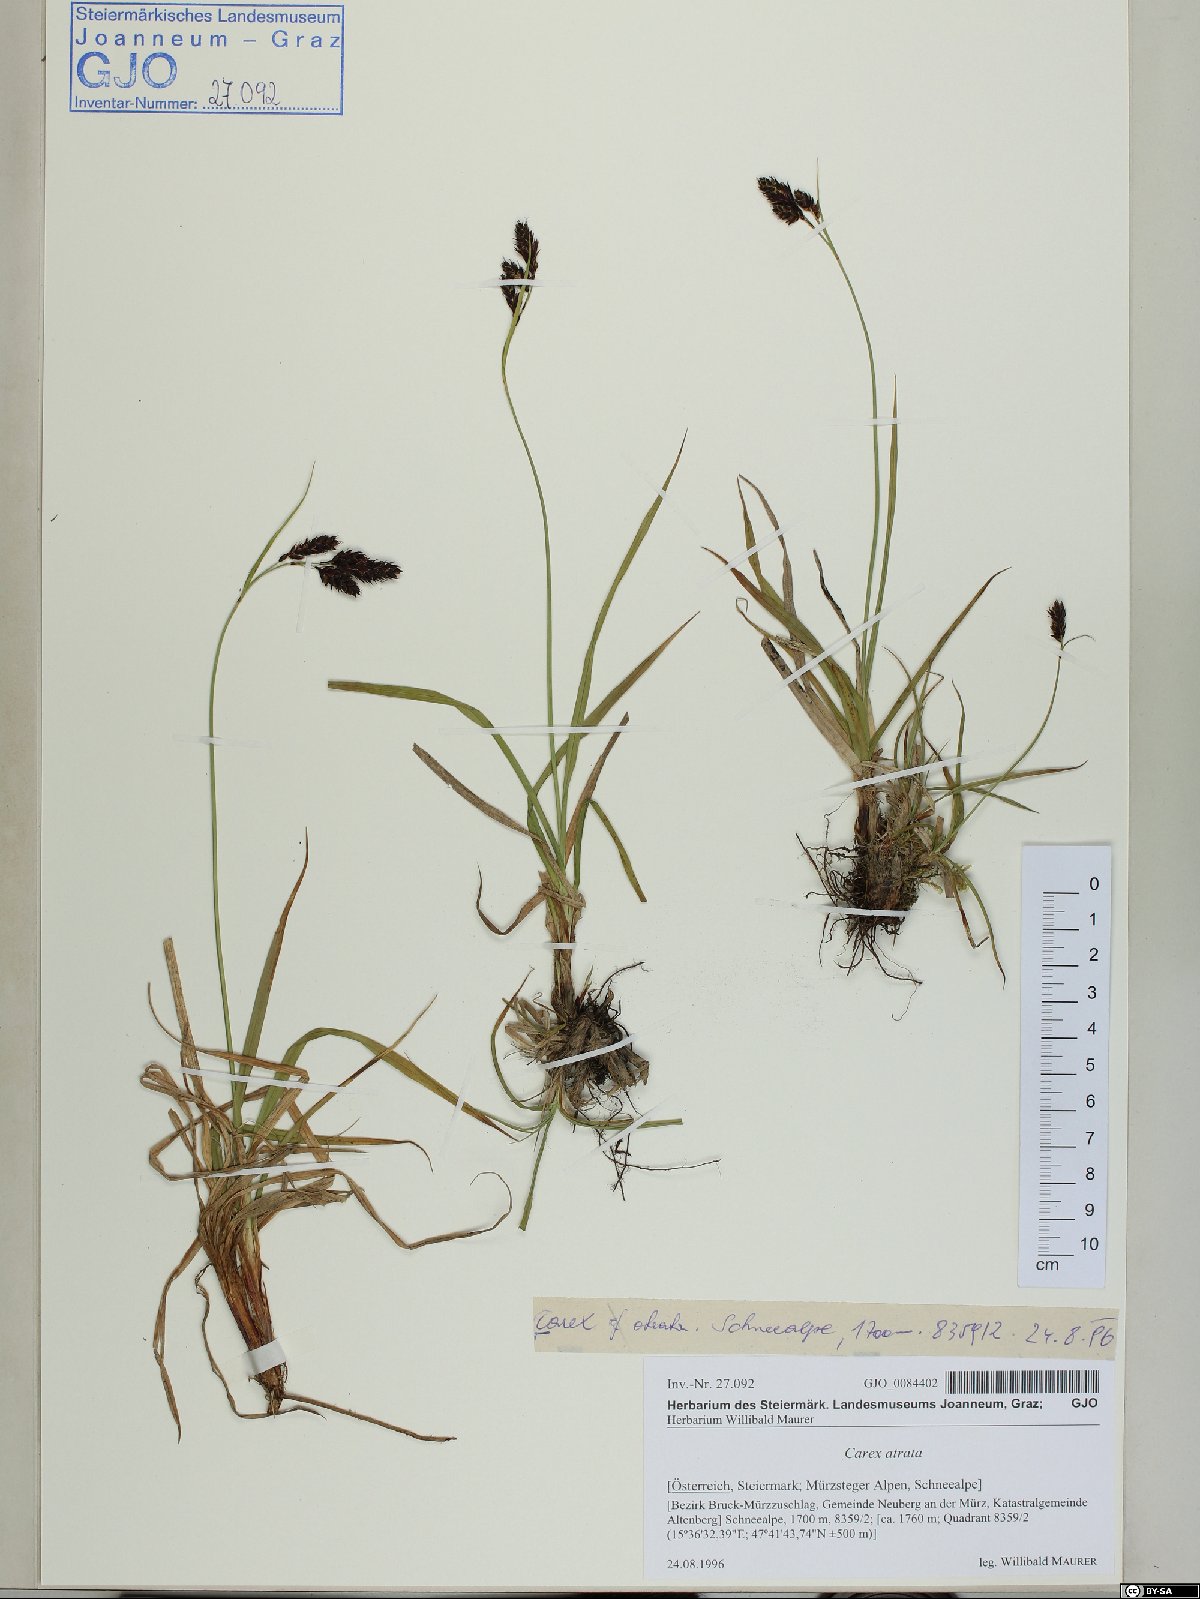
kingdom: Plantae
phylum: Tracheophyta
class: Liliopsida
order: Poales
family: Cyperaceae
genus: Carex
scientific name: Carex atrata
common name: Black alpine sedge
